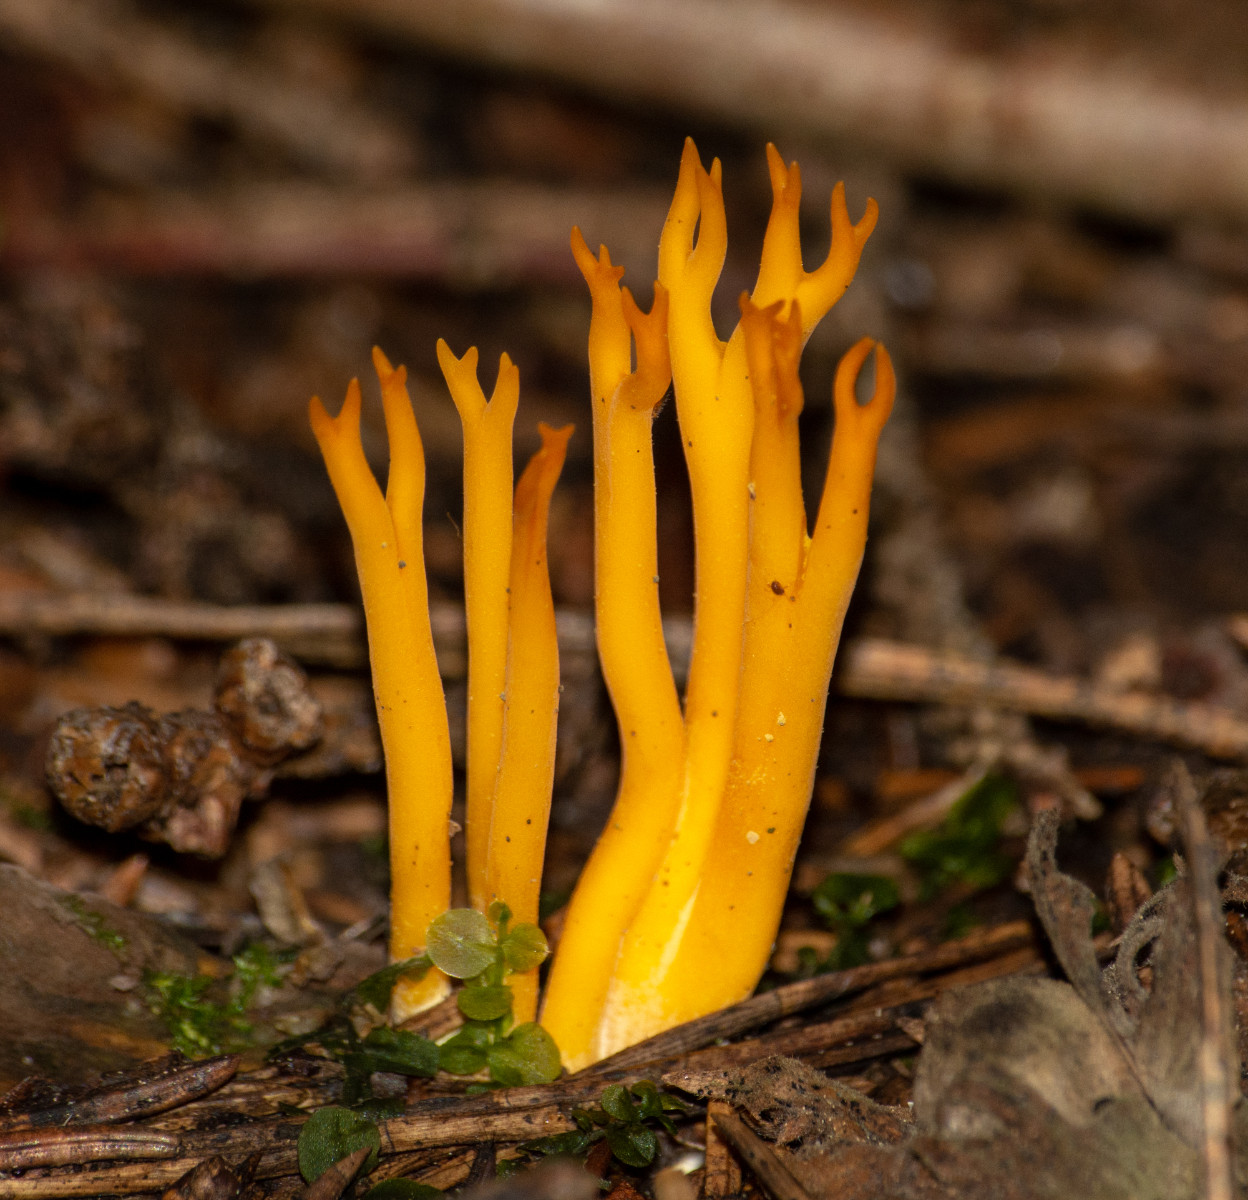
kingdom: Fungi
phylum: Basidiomycota
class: Dacrymycetes
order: Dacrymycetales
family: Dacrymycetaceae
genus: Calocera
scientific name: Calocera viscosa
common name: almindelig guldgaffel
